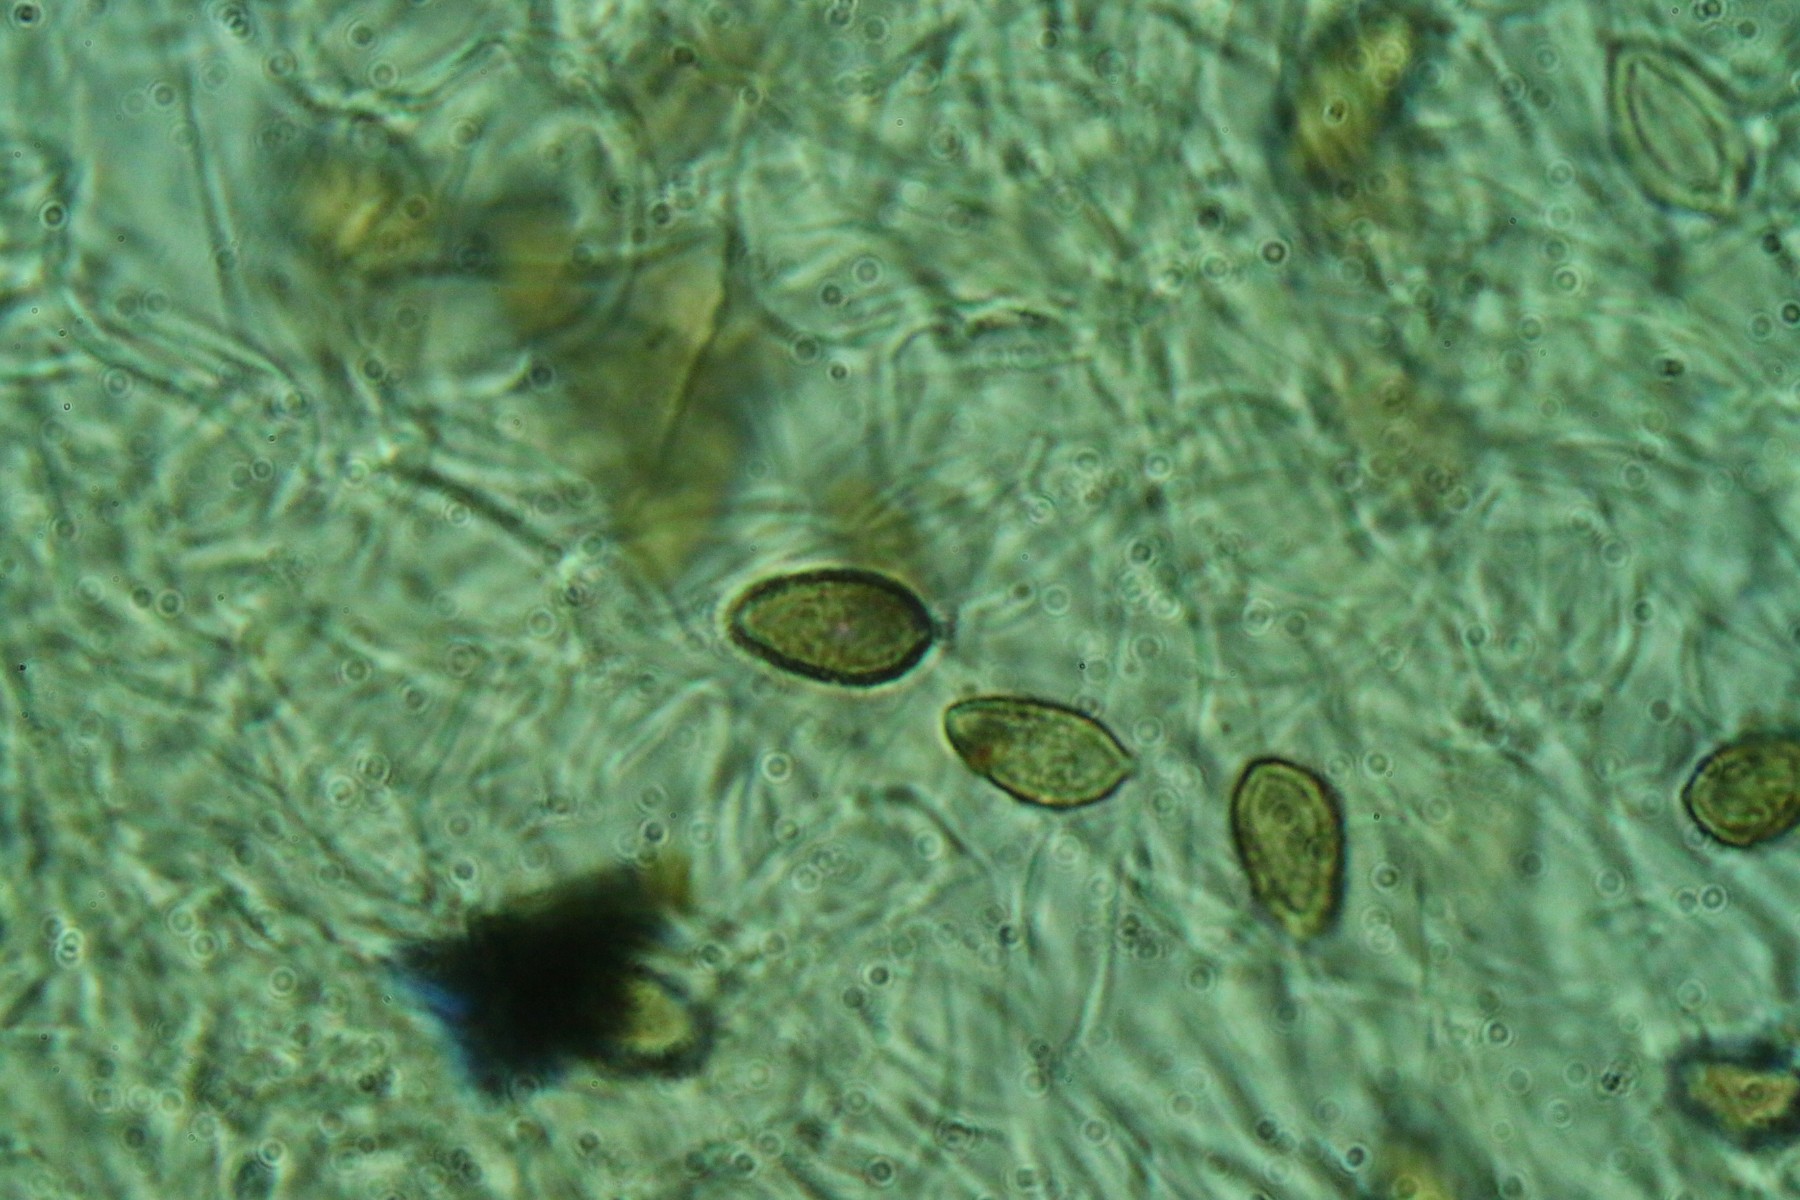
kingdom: Fungi
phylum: Basidiomycota
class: Agaricomycetes
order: Agaricales
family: Hymenogastraceae
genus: Hebeloma
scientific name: Hebeloma laterinum
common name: kakao-tåreblad
